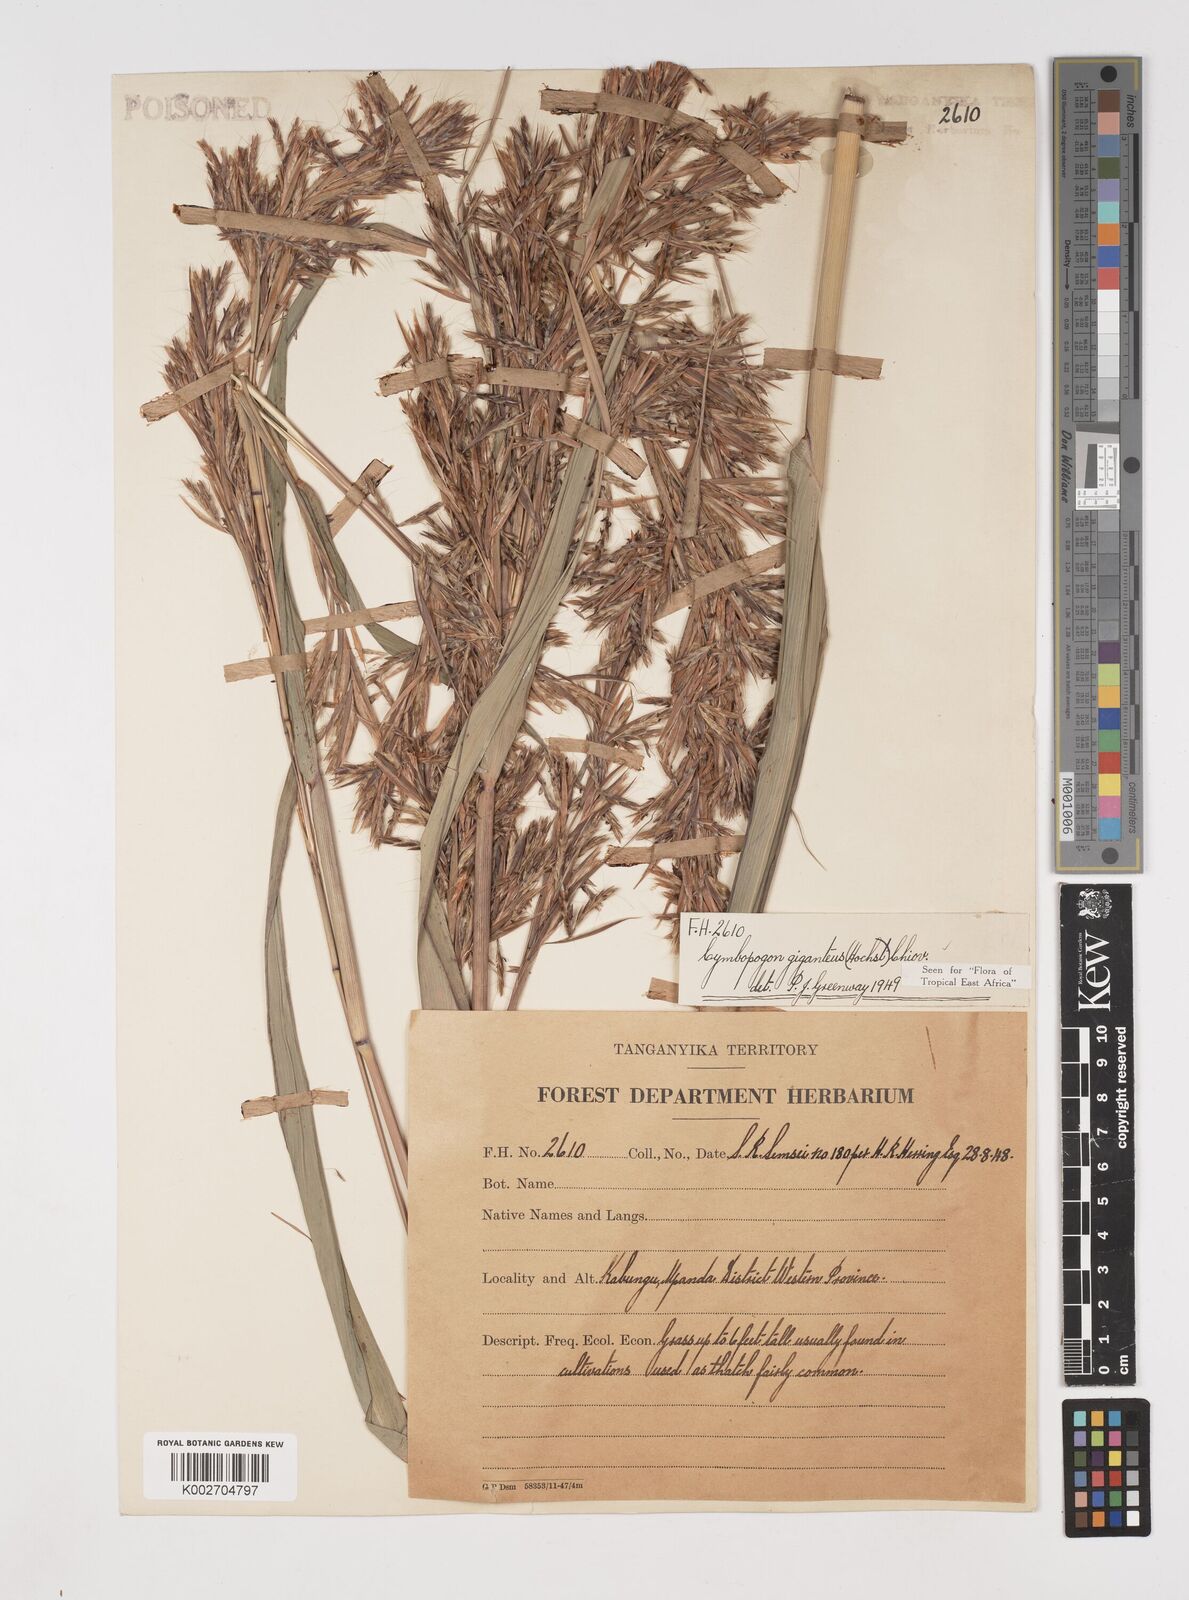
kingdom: Plantae
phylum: Tracheophyta
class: Liliopsida
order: Poales
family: Poaceae
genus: Cymbopogon
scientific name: Cymbopogon giganteus
